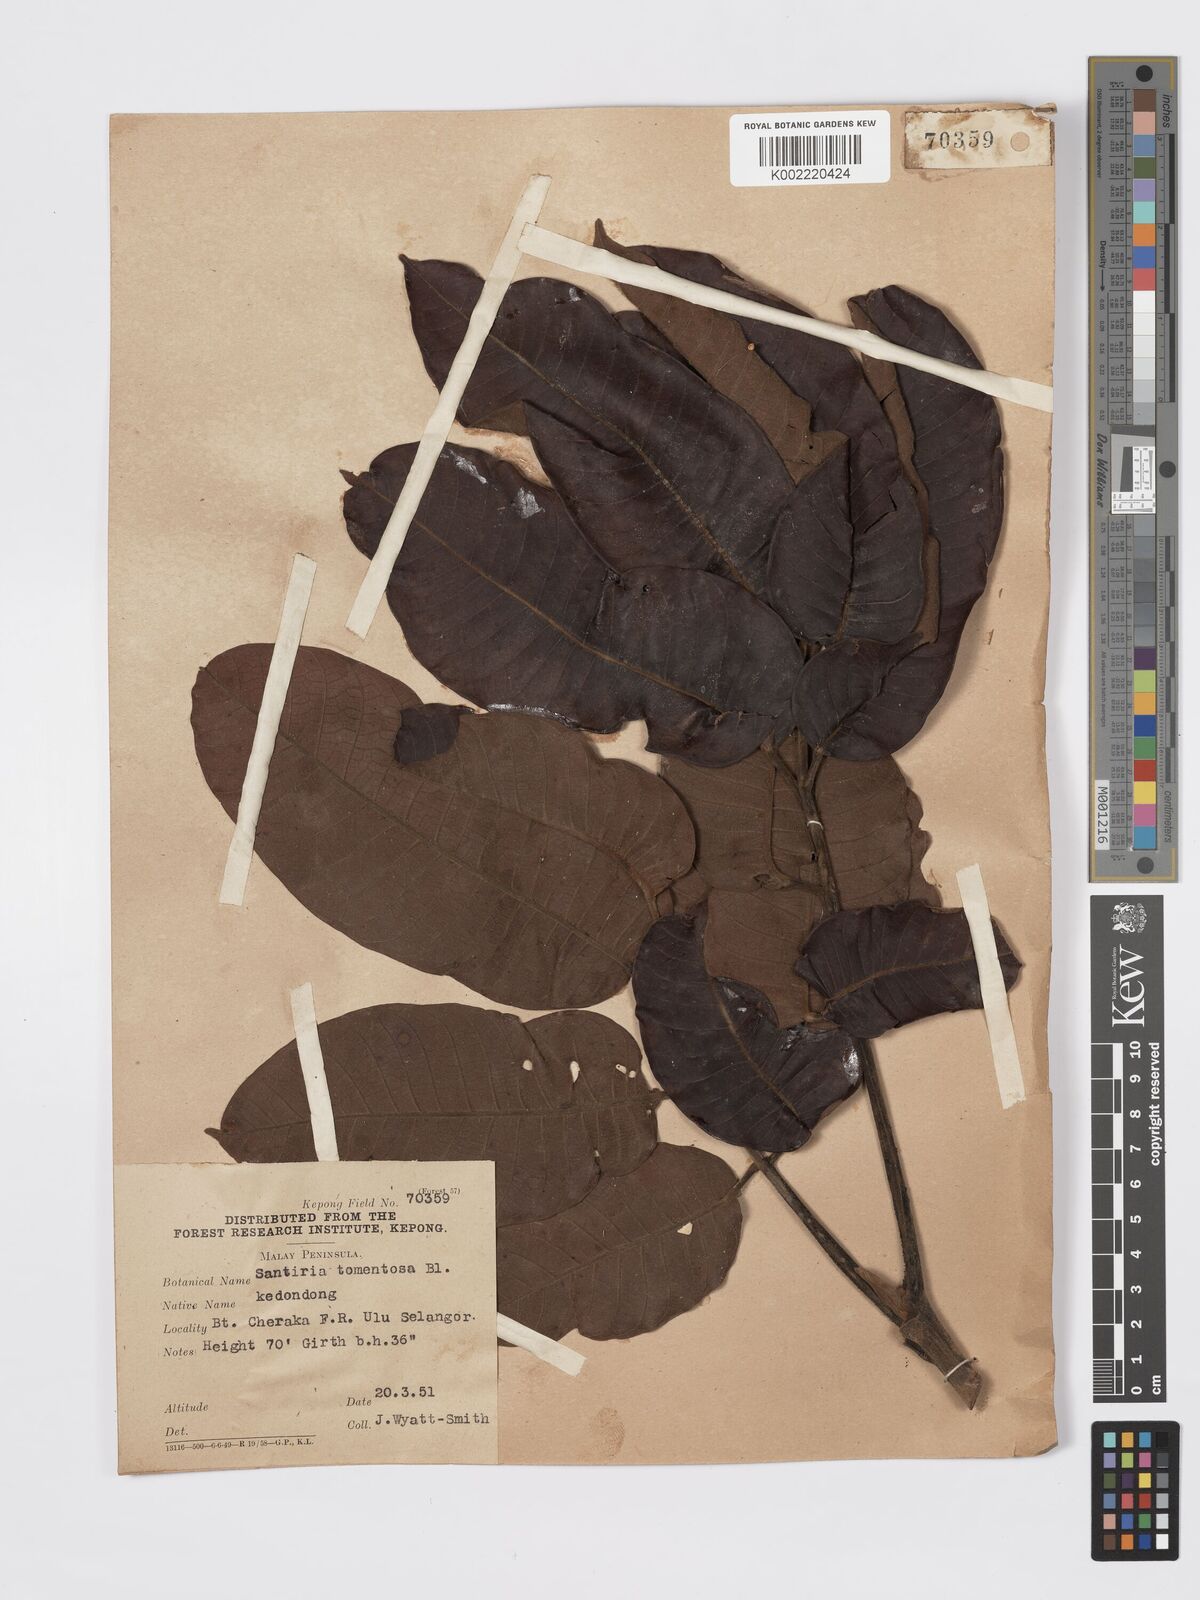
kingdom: Plantae
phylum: Tracheophyta
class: Magnoliopsida
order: Sapindales
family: Burseraceae
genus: Santiria
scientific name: Santiria tomentosa
